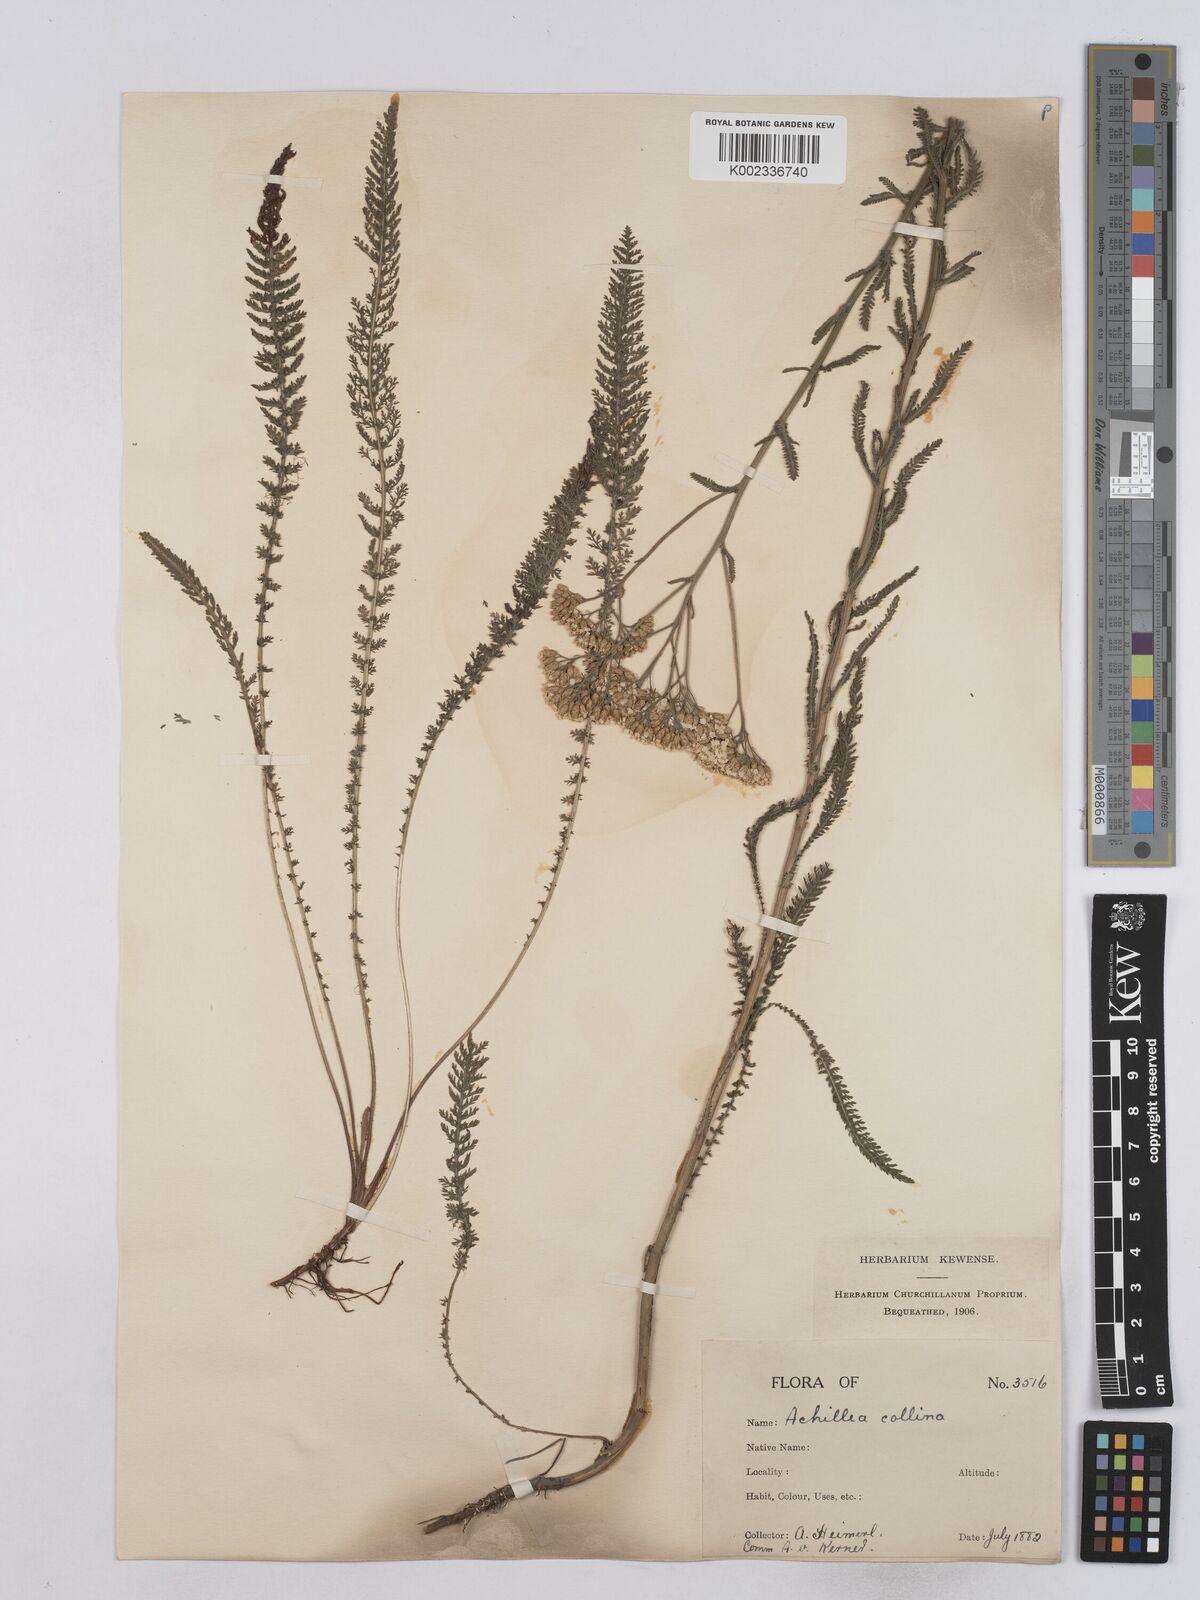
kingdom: Plantae
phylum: Tracheophyta
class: Magnoliopsida
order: Asterales
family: Asteraceae
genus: Achillea
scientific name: Achillea collina
